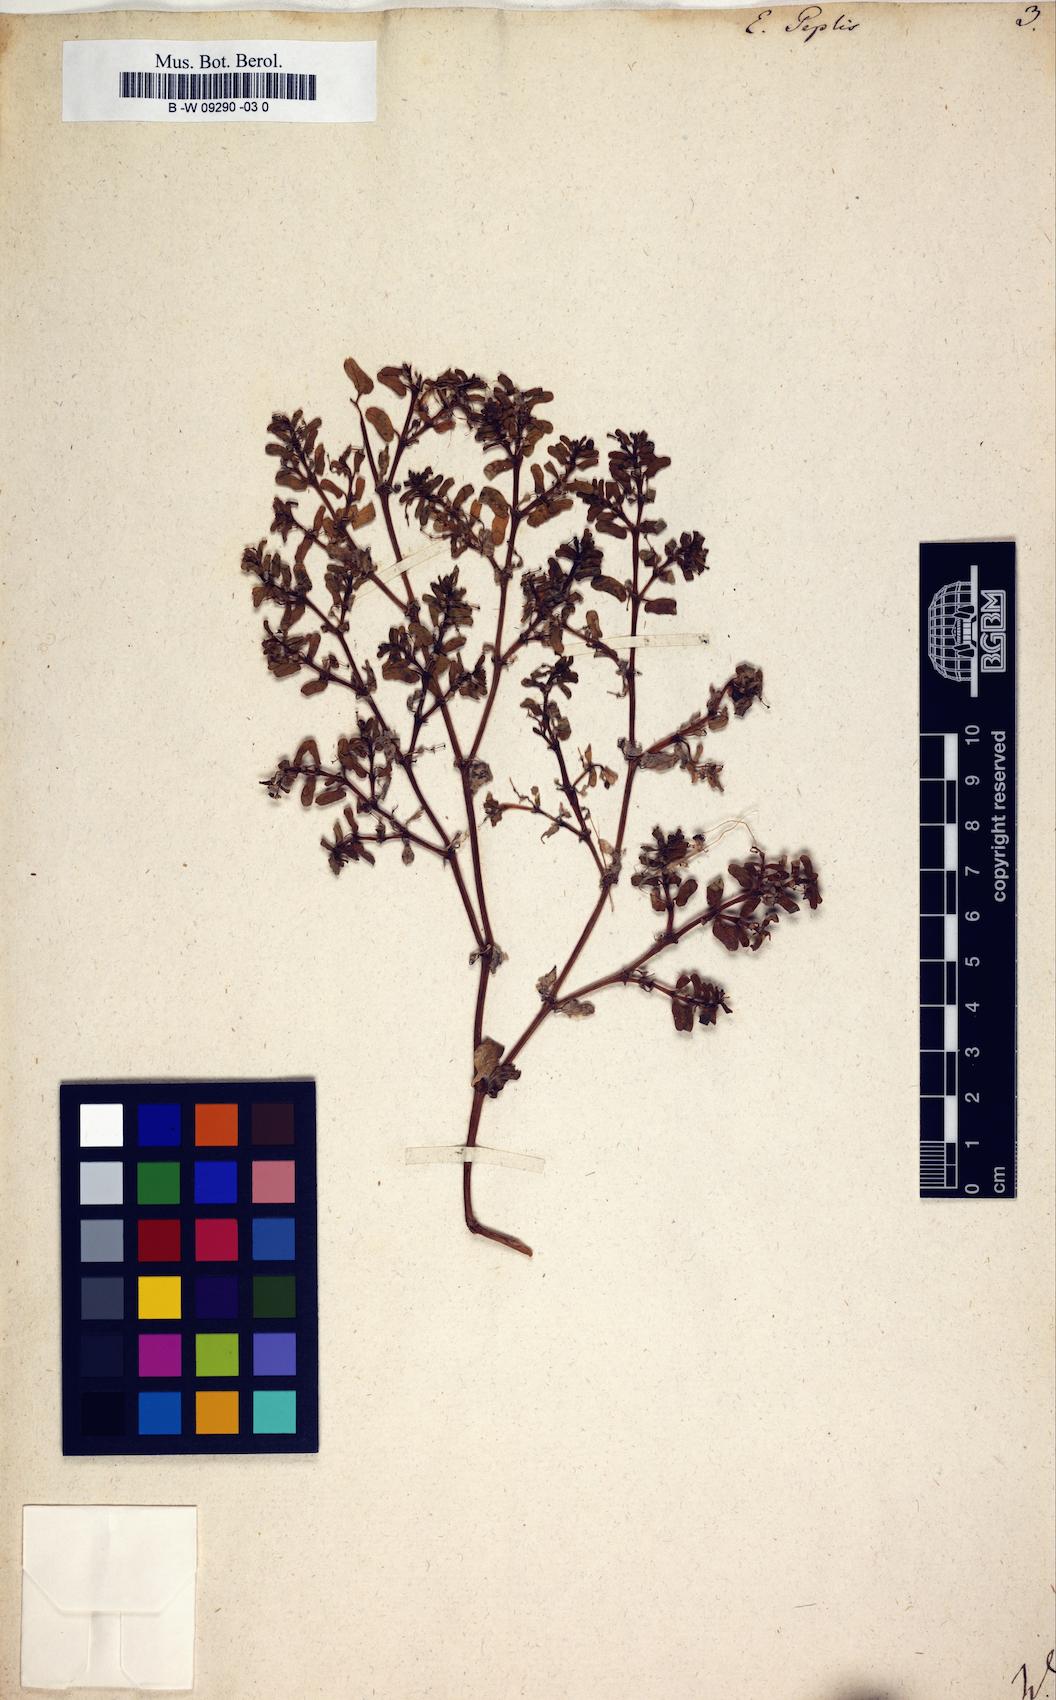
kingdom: Plantae
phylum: Tracheophyta
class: Magnoliopsida
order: Malpighiales
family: Euphorbiaceae
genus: Euphorbia
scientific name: Euphorbia peplis
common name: Purple spurge
